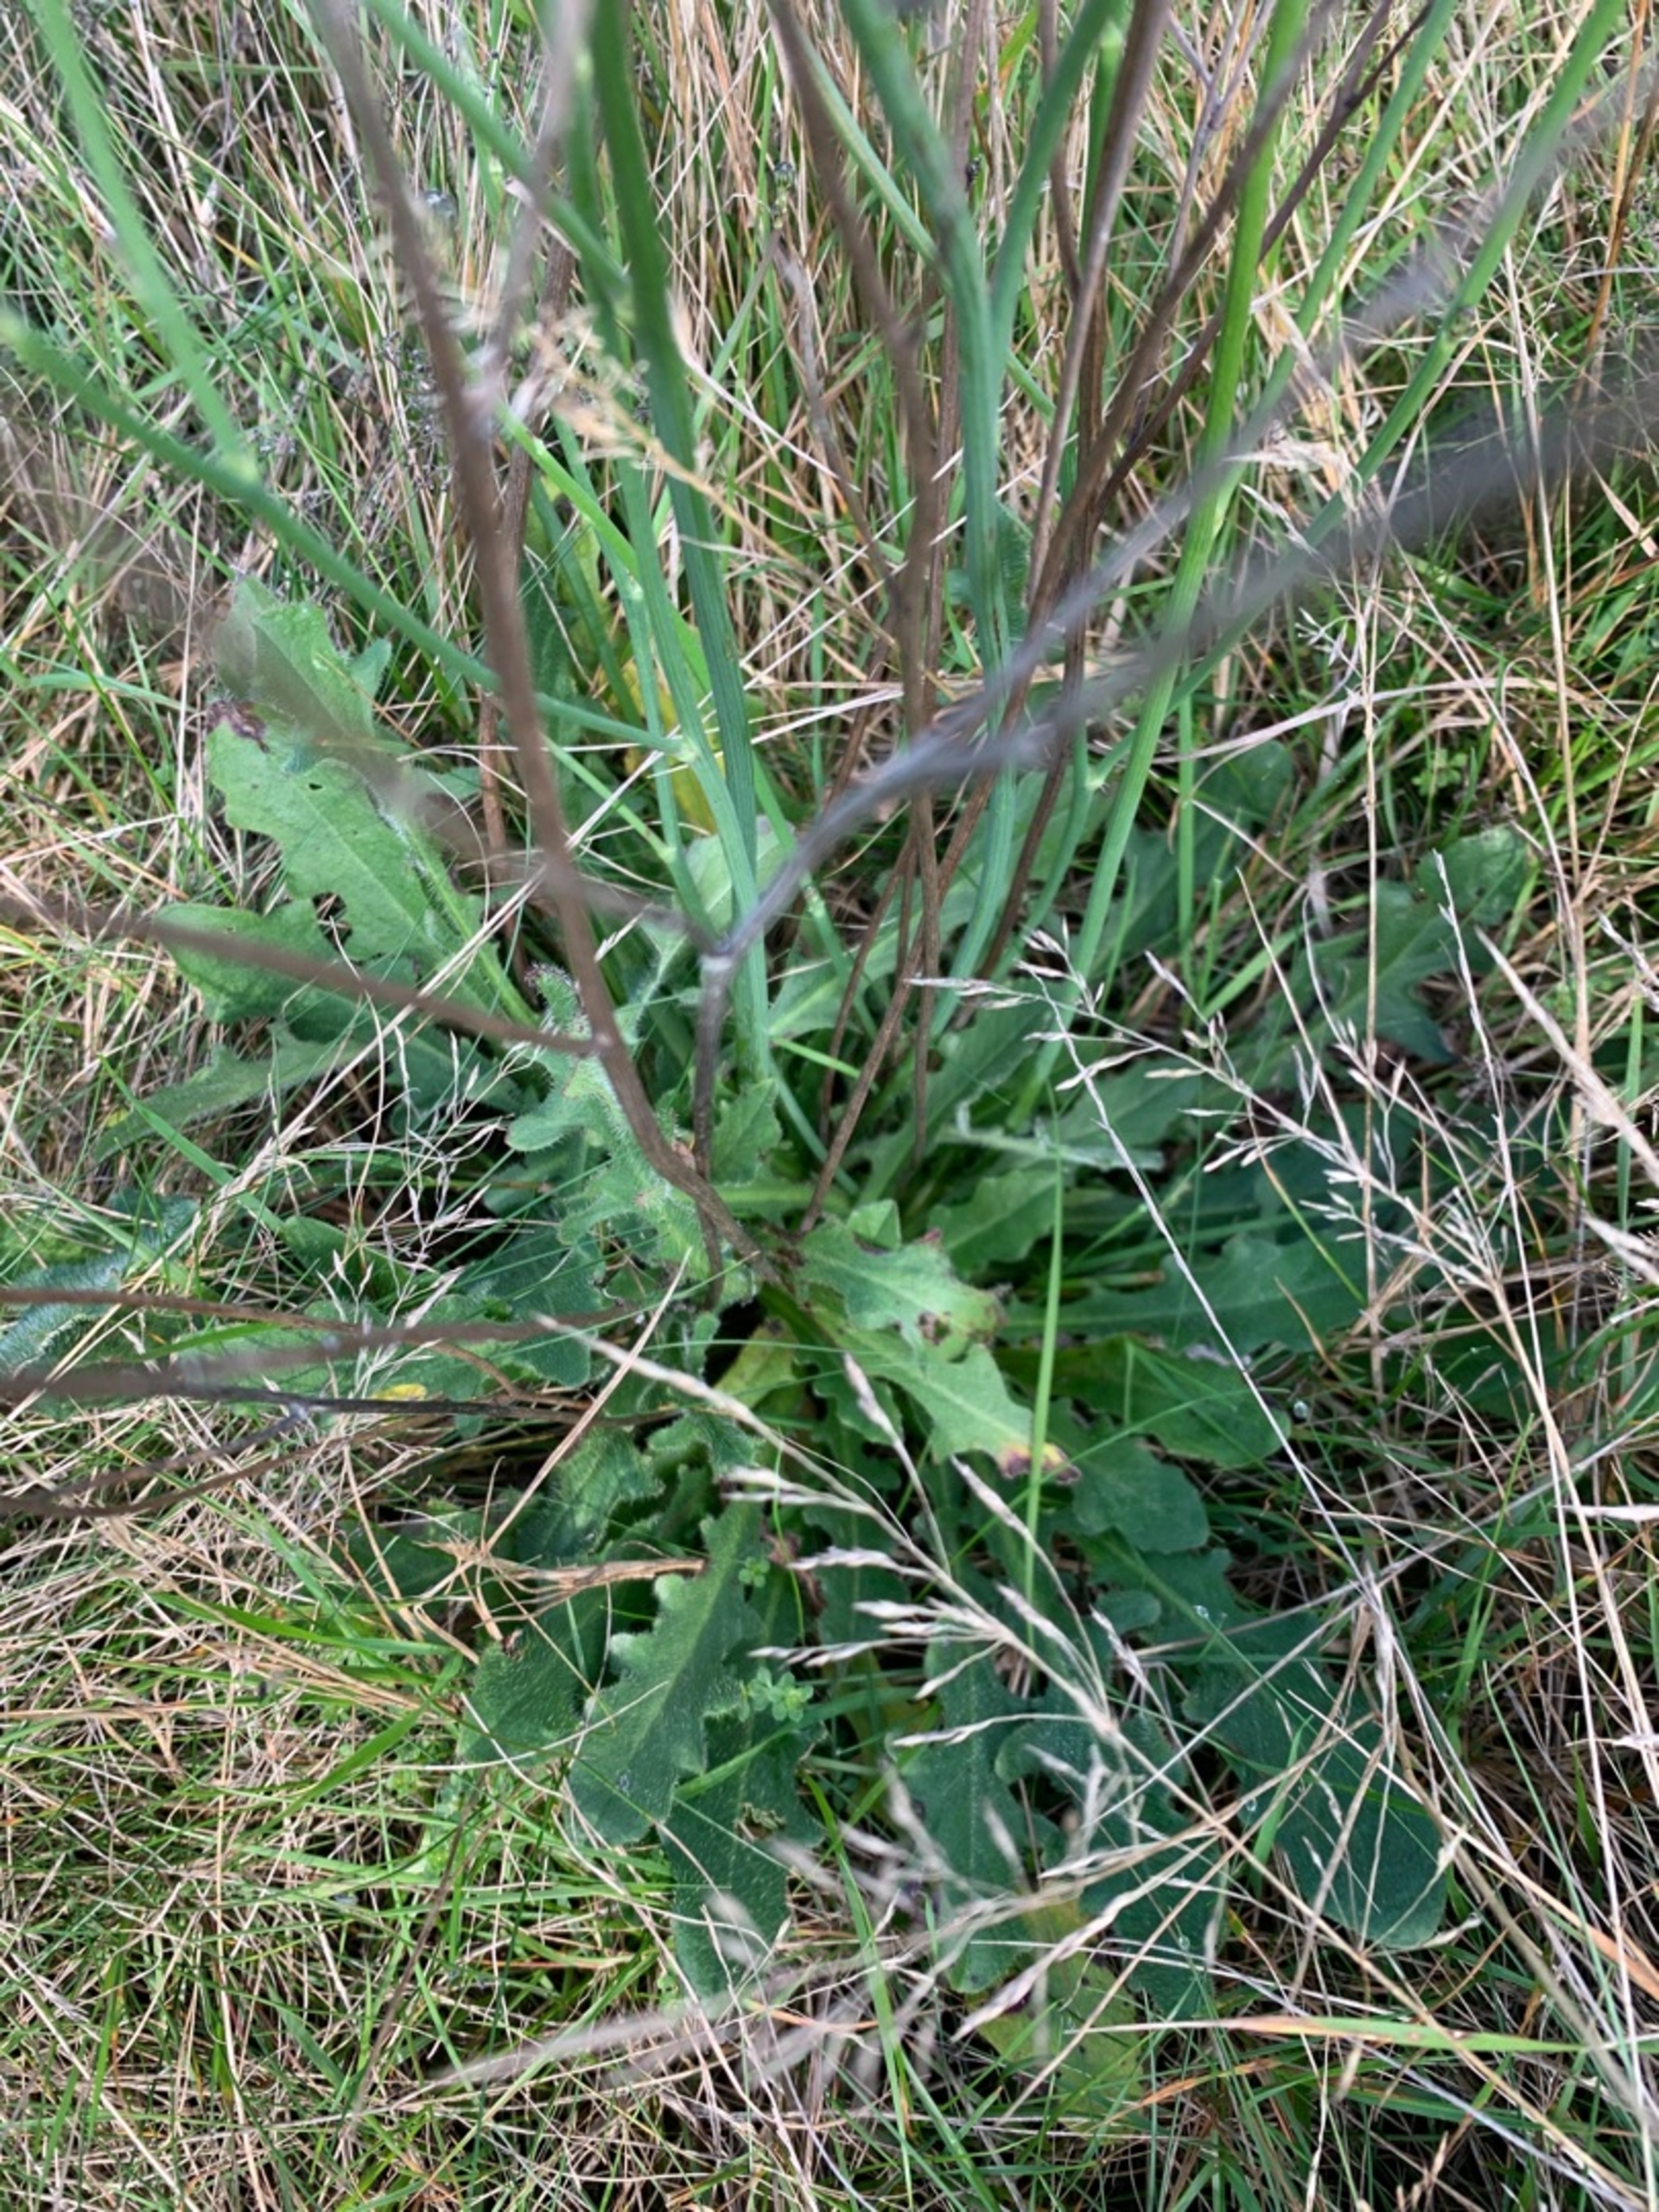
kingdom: Plantae
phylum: Tracheophyta
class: Magnoliopsida
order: Asterales
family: Asteraceae
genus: Hypochaeris
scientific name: Hypochaeris radicata
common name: Almindelig kongepen
